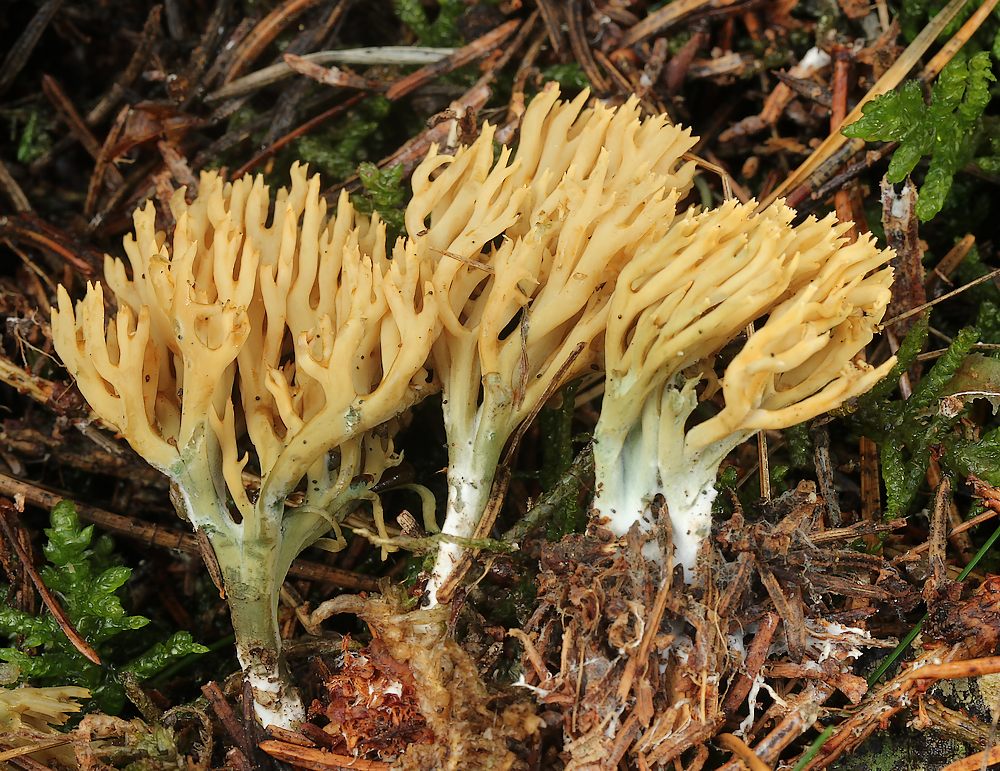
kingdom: Fungi
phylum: Basidiomycota
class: Agaricomycetes
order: Gomphales
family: Gomphaceae
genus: Phaeoclavulina
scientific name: Phaeoclavulina eumorpha
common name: gran-koralsvamp
